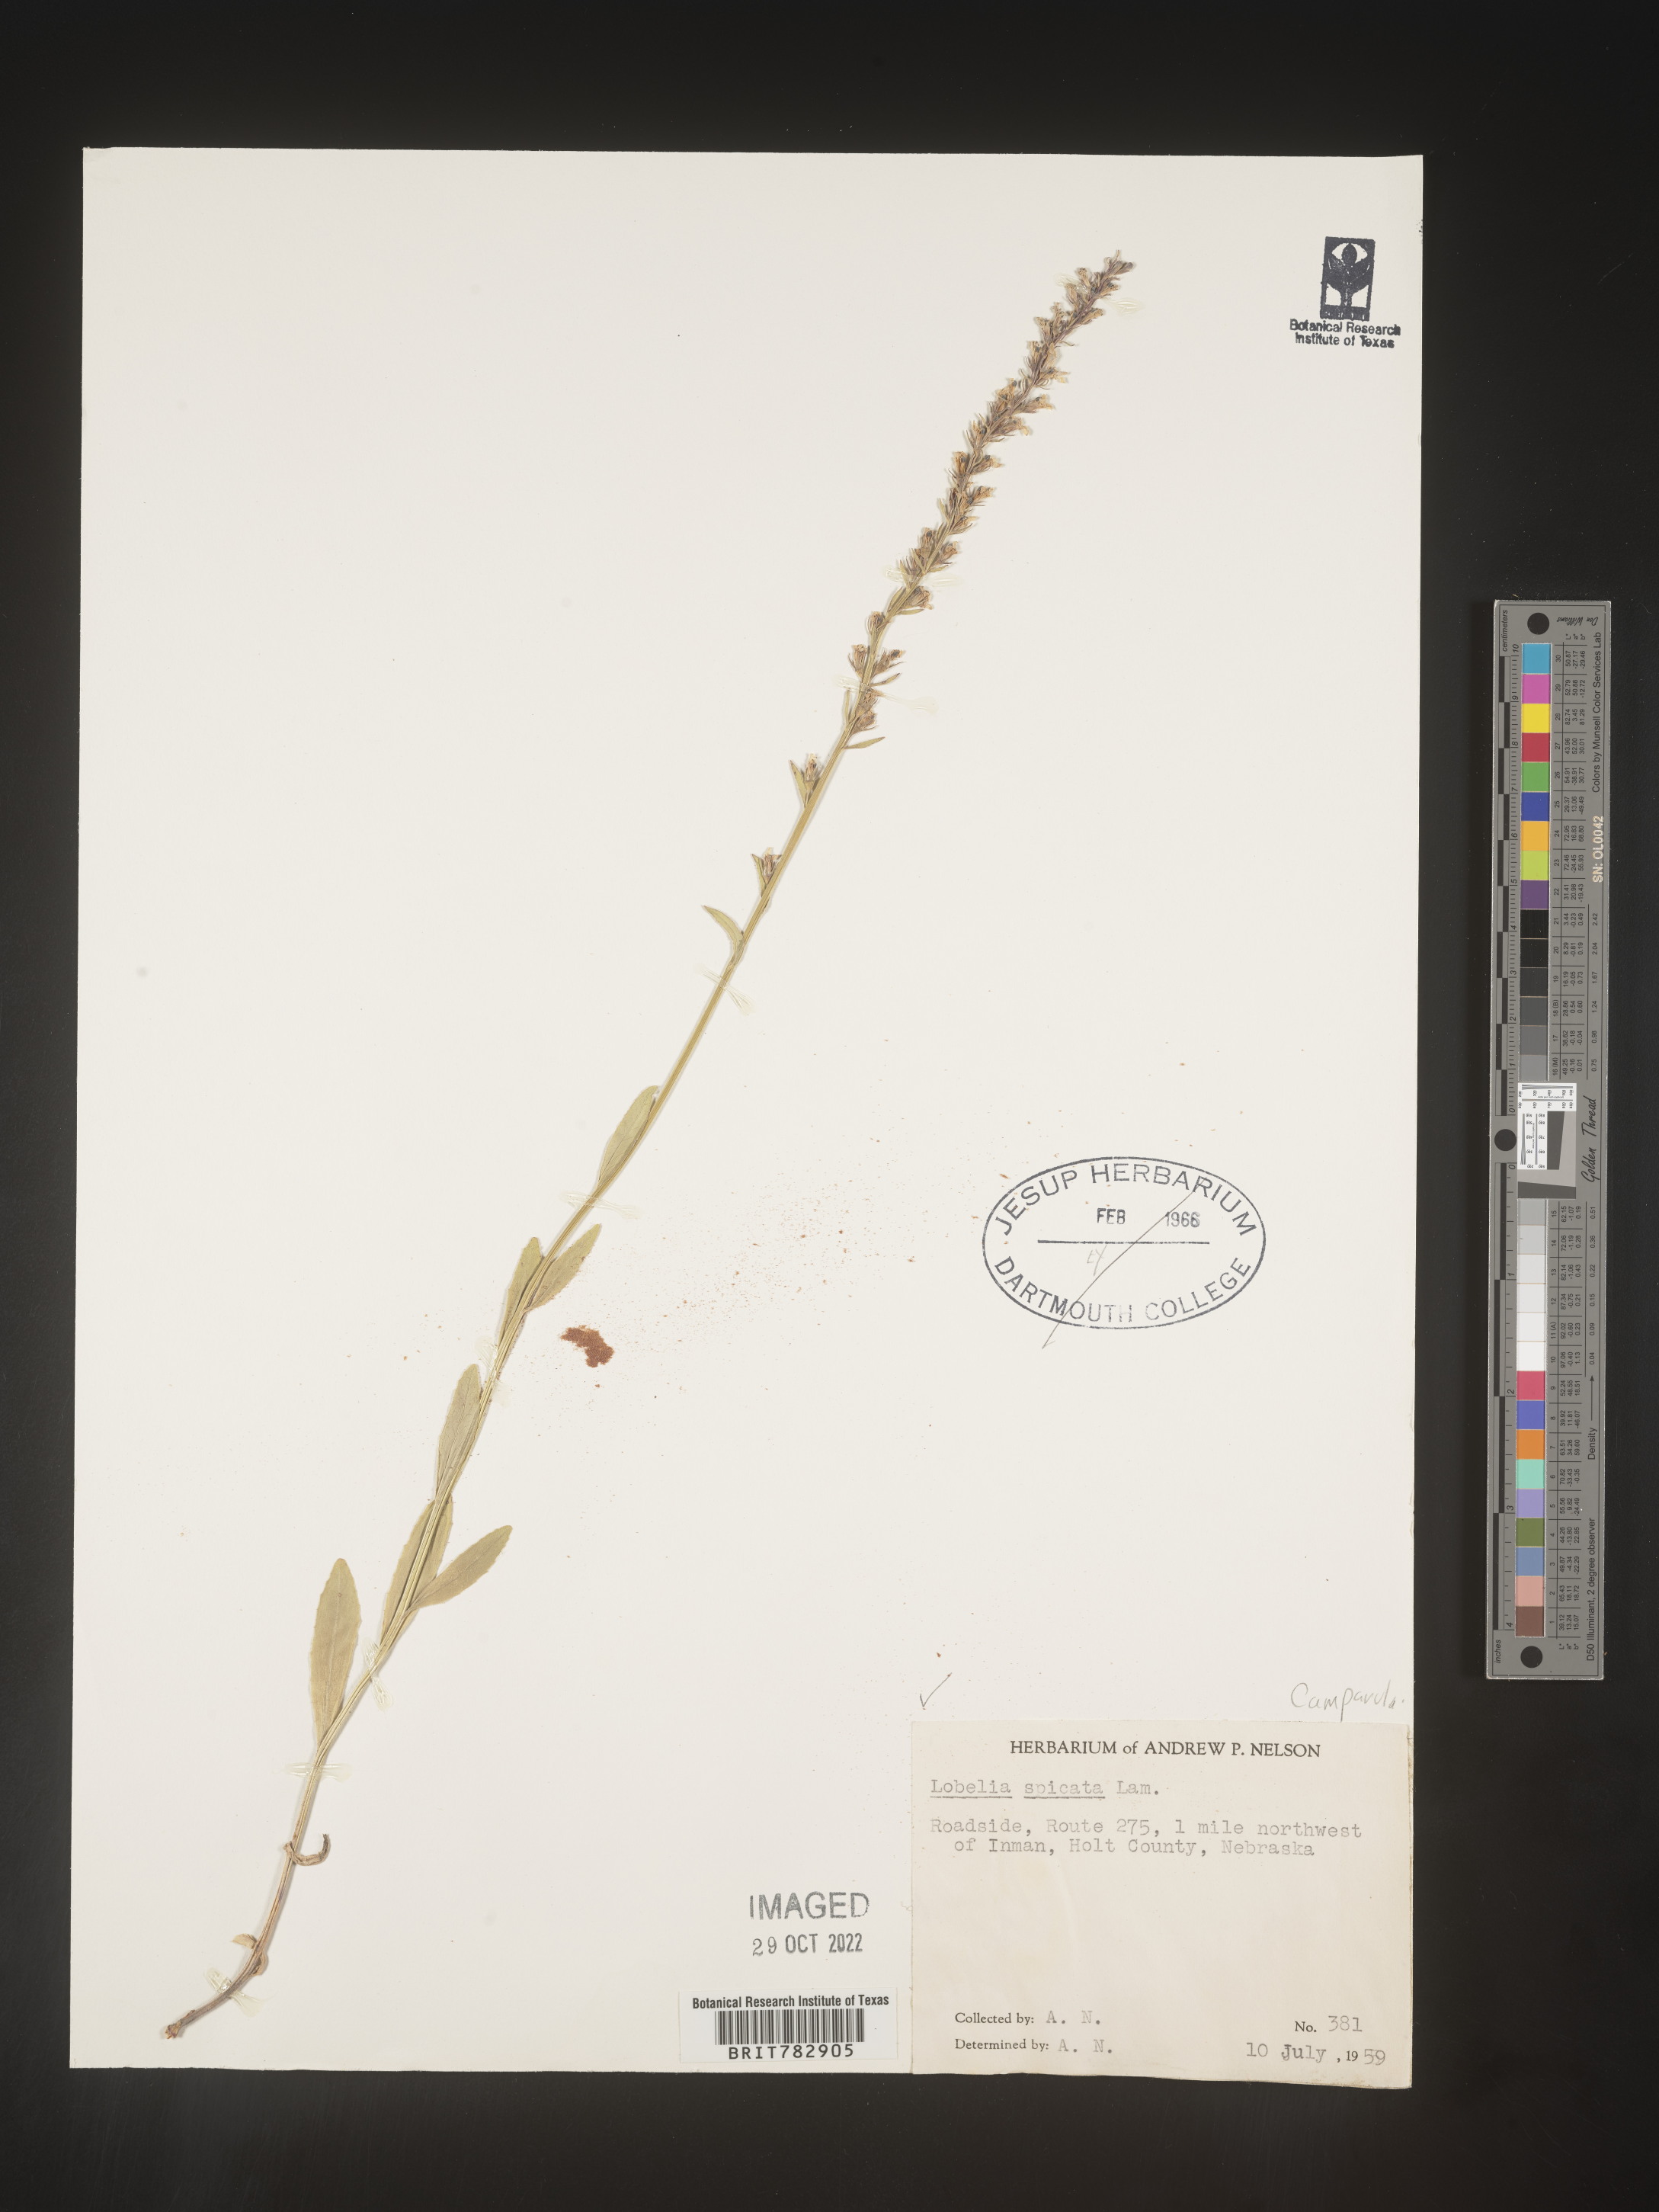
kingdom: Plantae
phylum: Tracheophyta
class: Magnoliopsida
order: Asterales
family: Campanulaceae
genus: Lobelia
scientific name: Lobelia spicata
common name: Pale-spike lobelia
